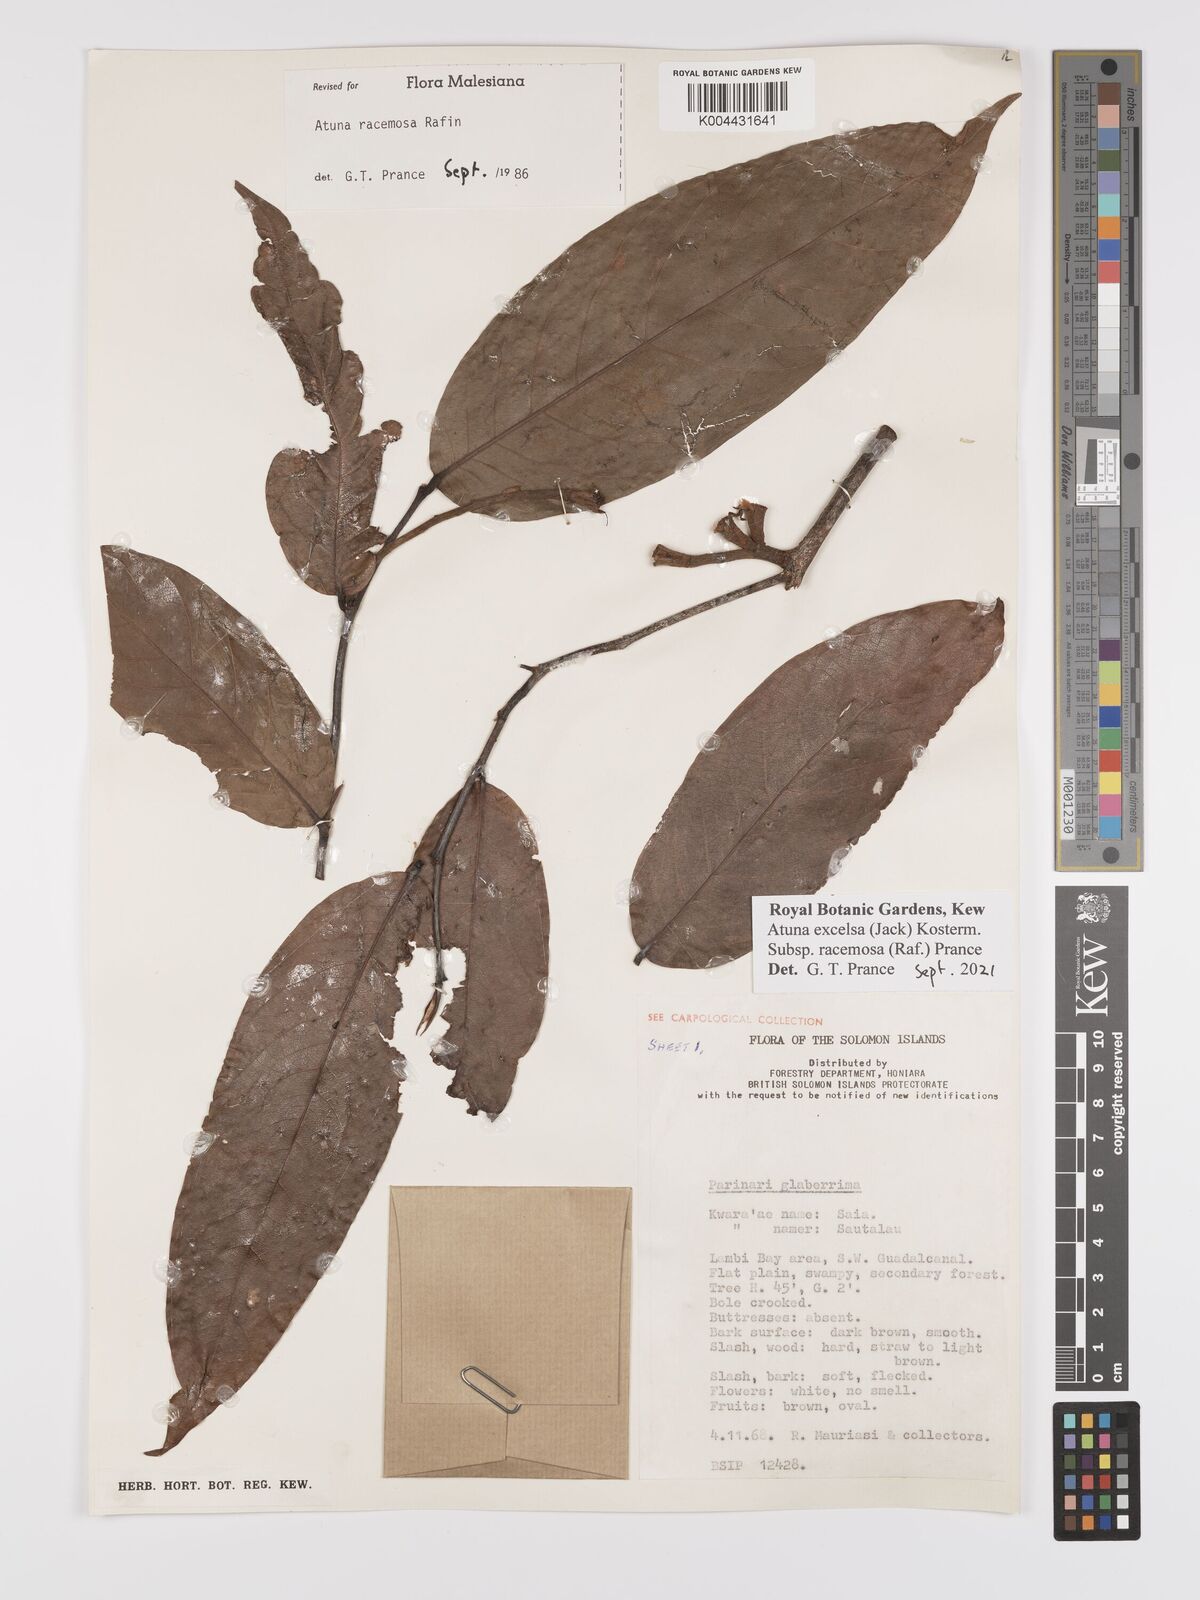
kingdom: Plantae
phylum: Tracheophyta
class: Magnoliopsida
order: Malpighiales
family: Chrysobalanaceae
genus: Atuna
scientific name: Atuna
